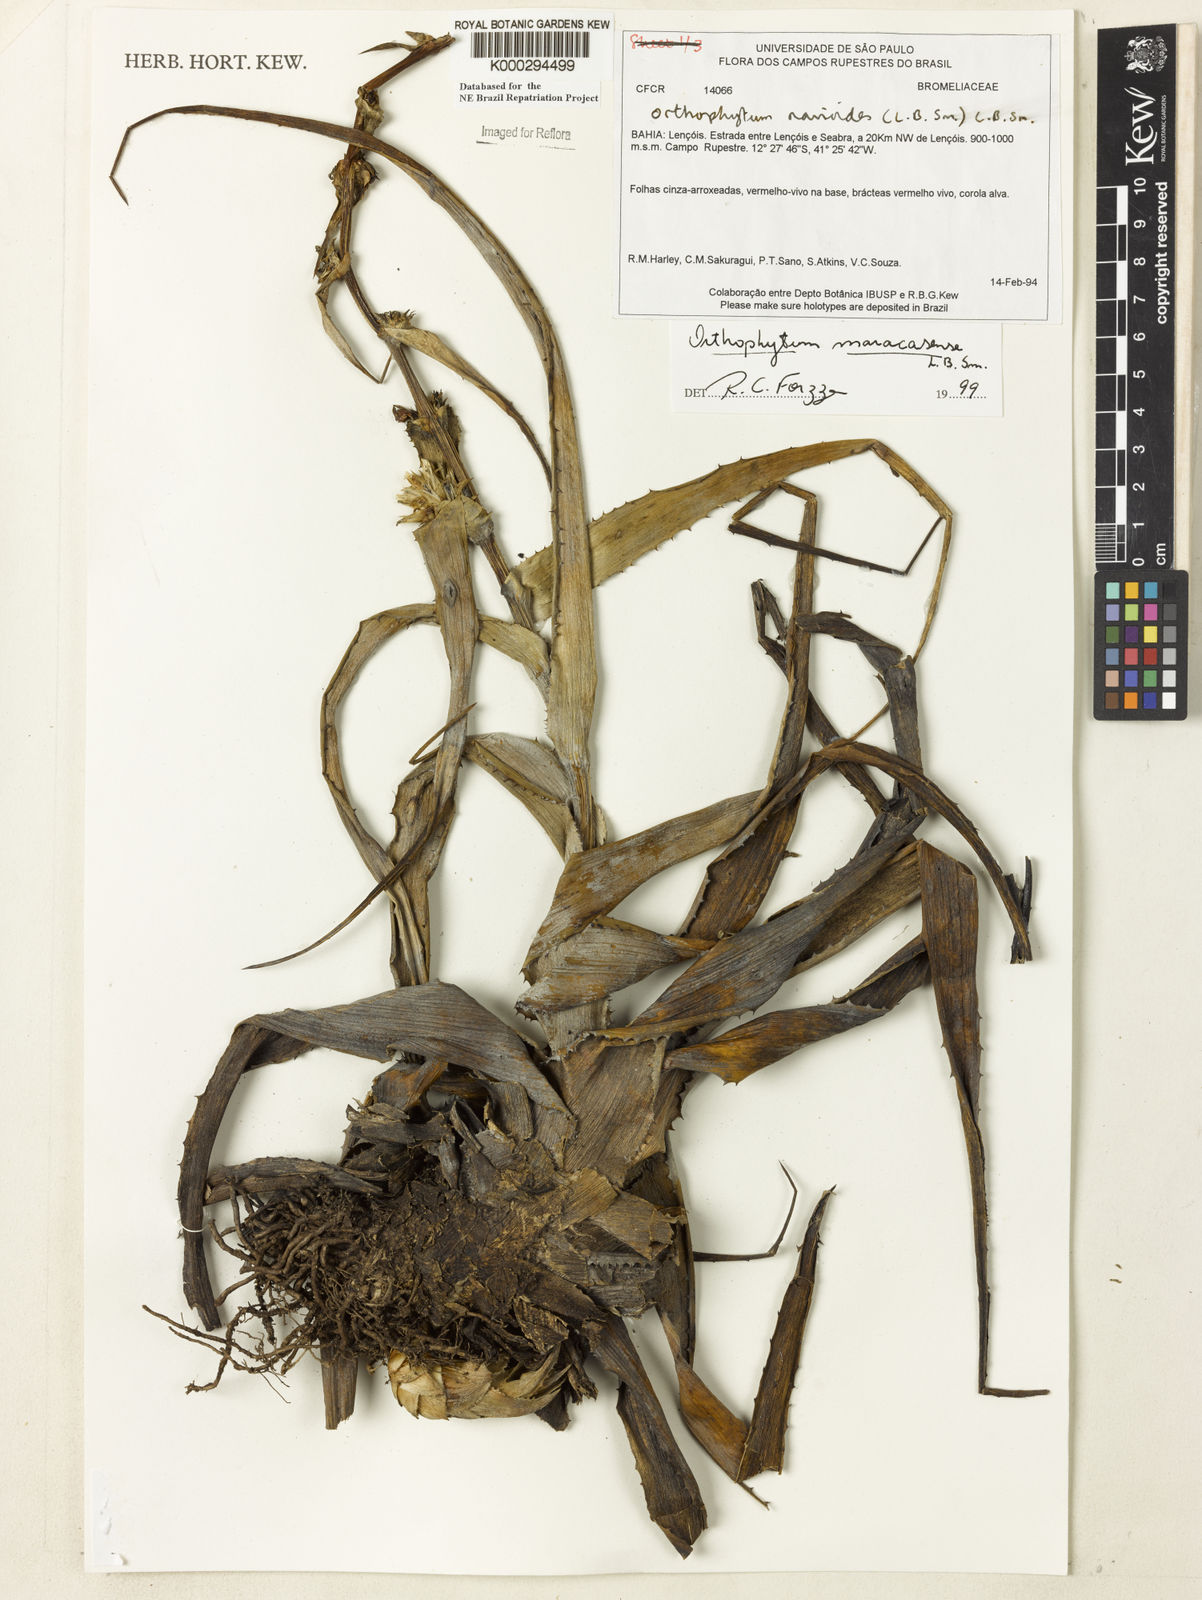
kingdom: Plantae
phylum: Tracheophyta
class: Liliopsida
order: Poales
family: Bromeliaceae
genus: Orthophytum
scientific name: Orthophytum disjunctum
